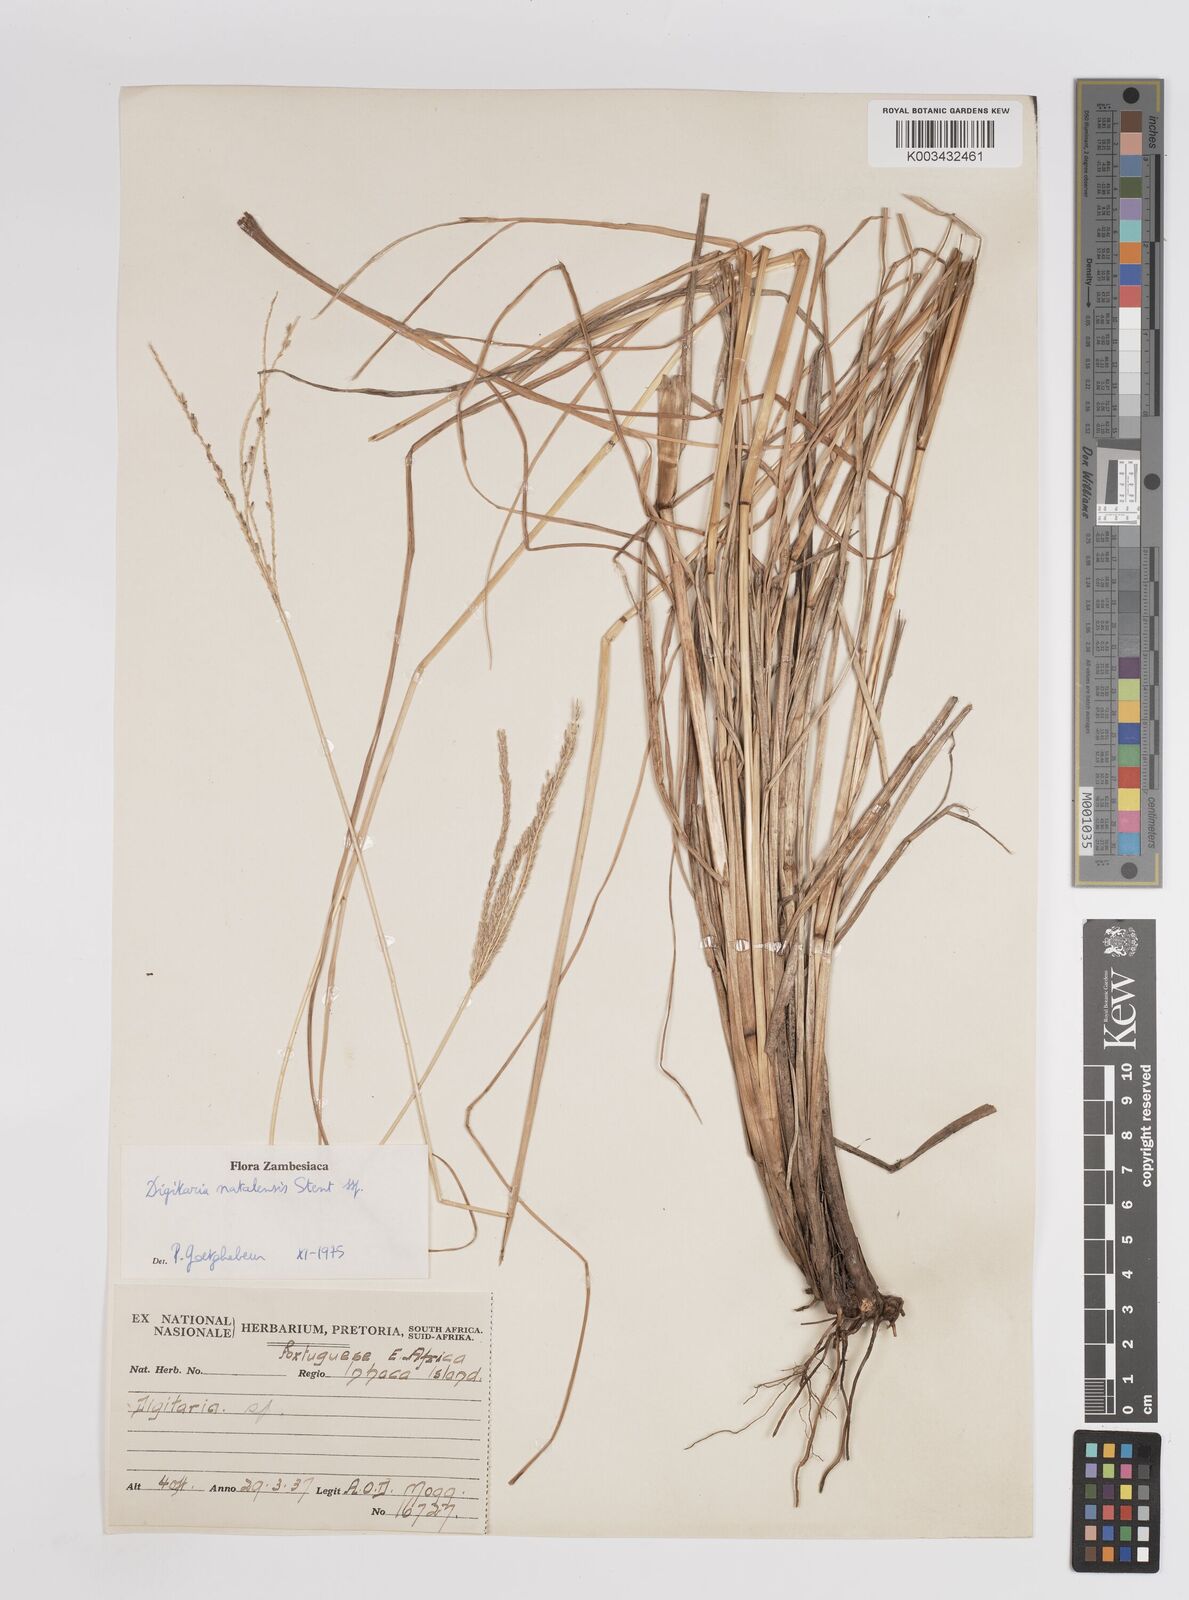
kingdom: Plantae
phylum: Tracheophyta
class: Liliopsida
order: Poales
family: Poaceae
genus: Digitaria
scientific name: Digitaria natalensis
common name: Coast finger grass
